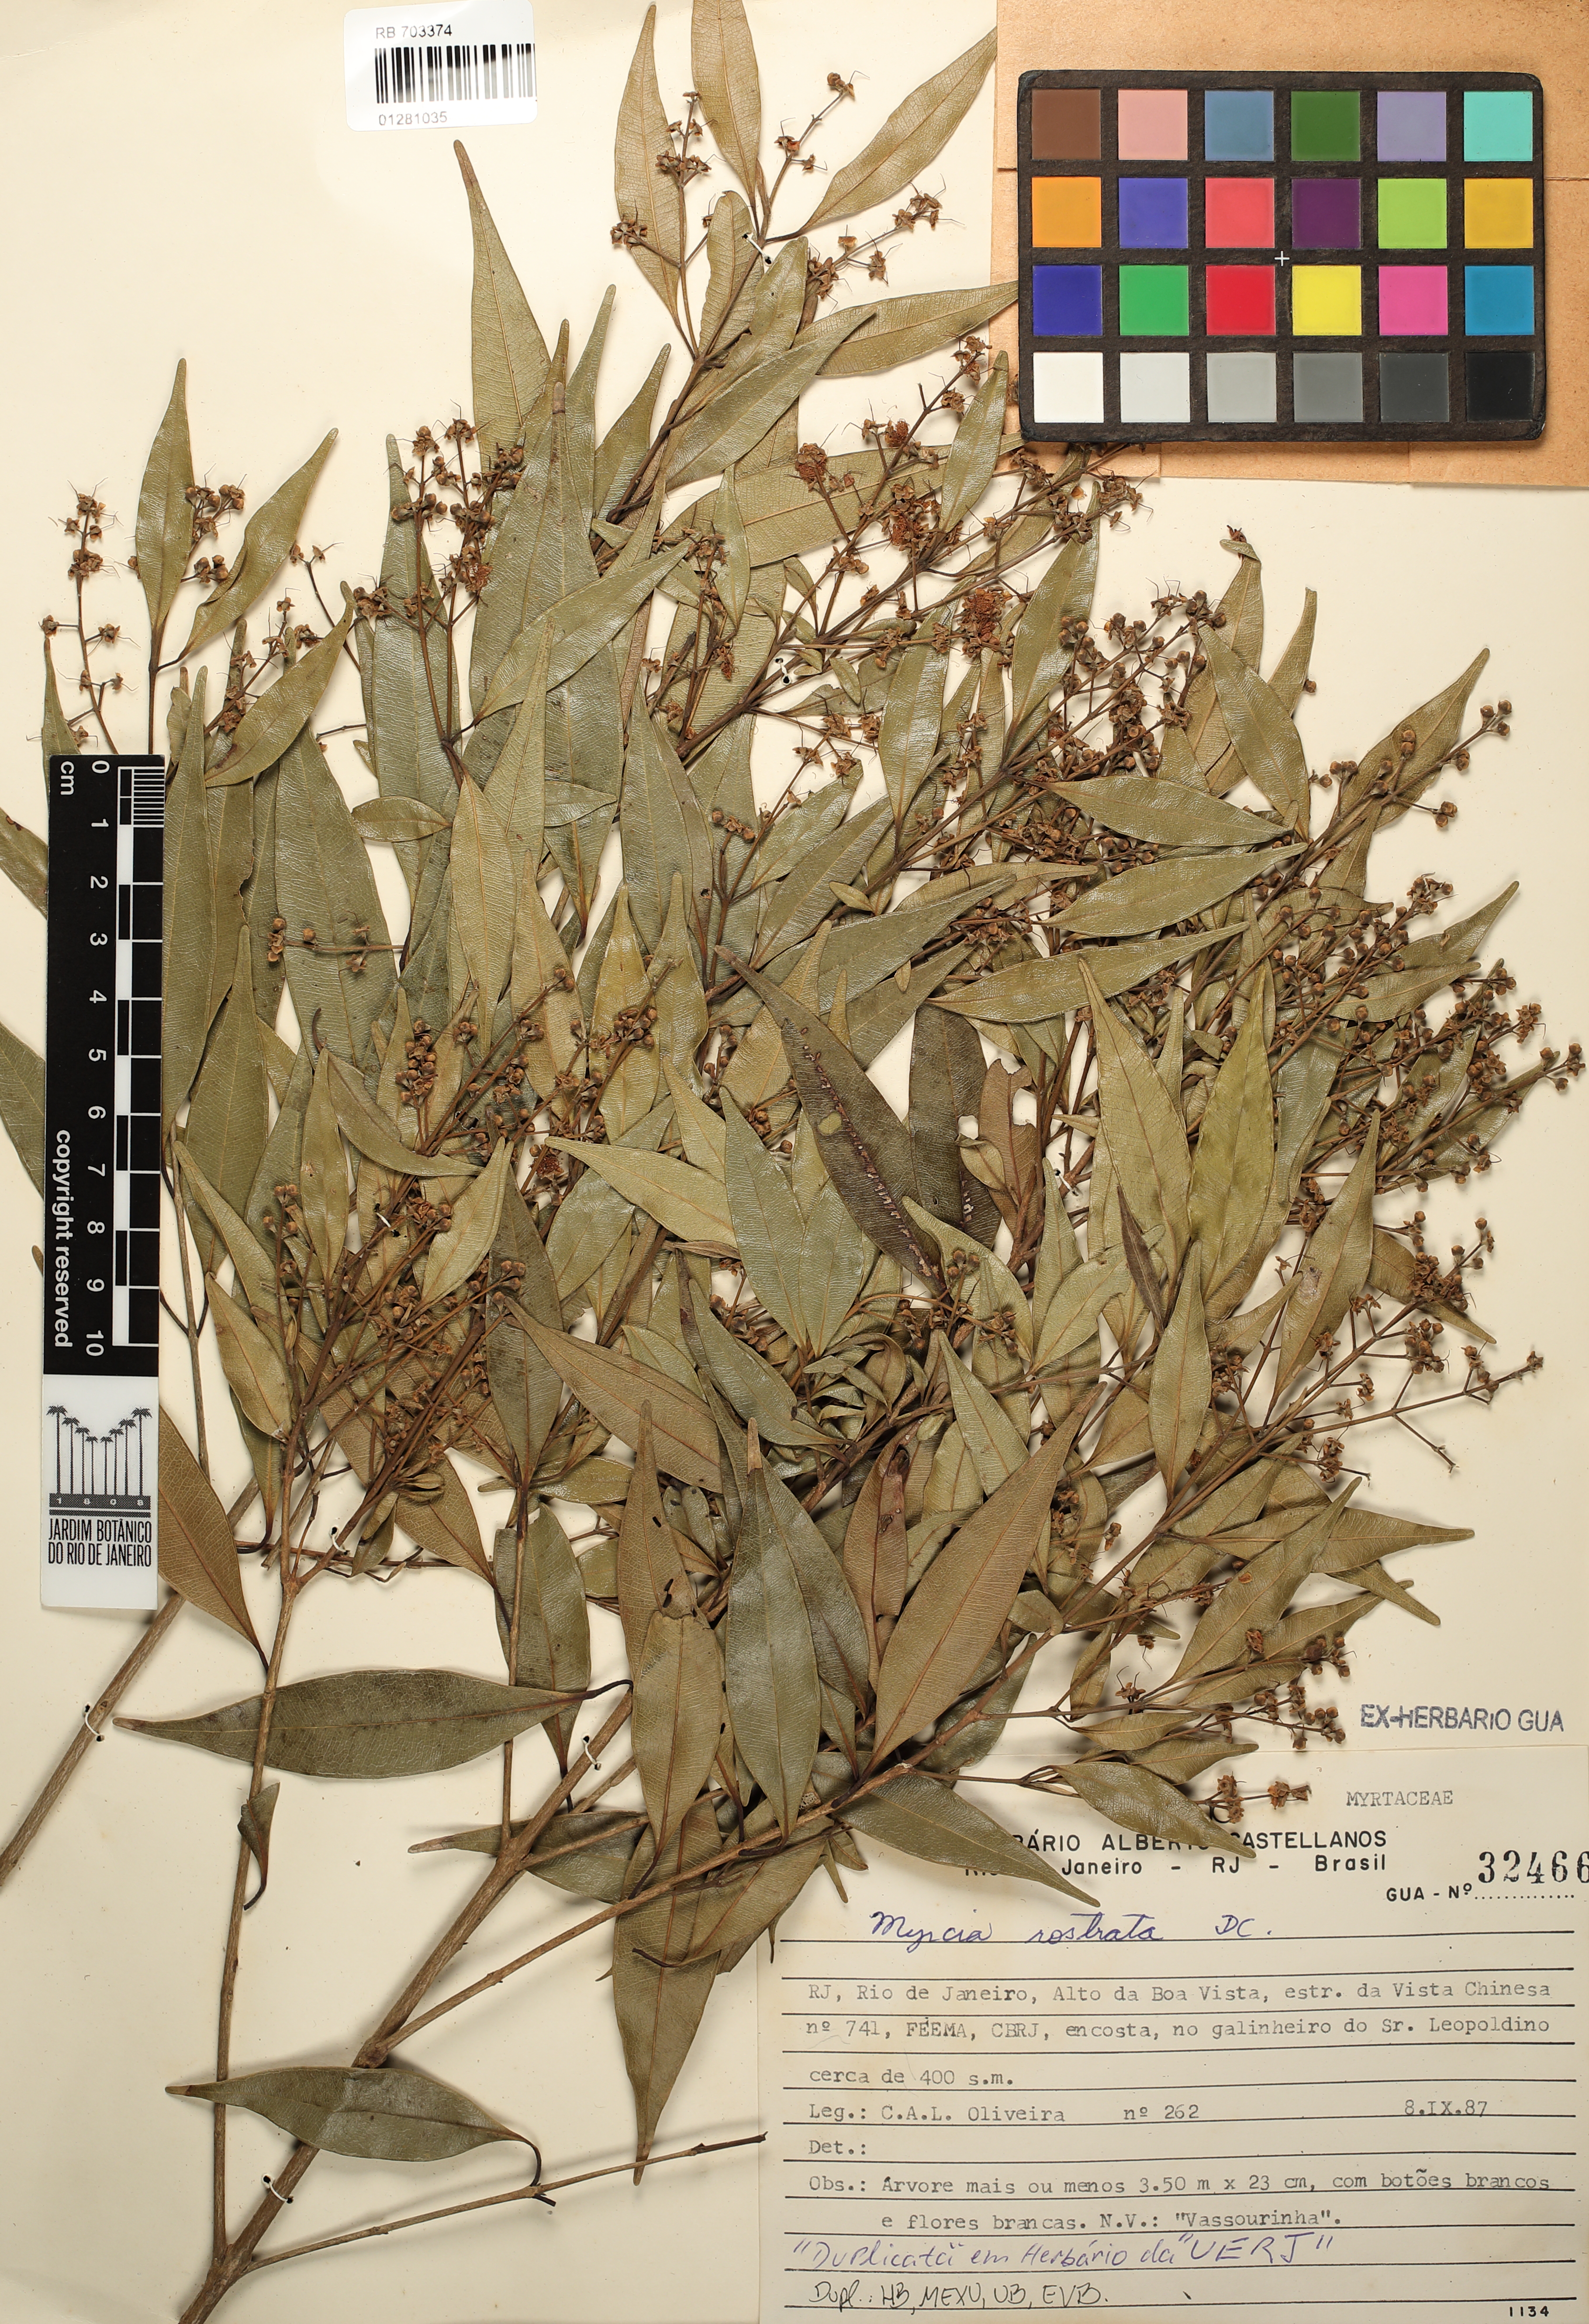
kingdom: Plantae
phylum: Tracheophyta
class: Magnoliopsida
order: Myrtales
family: Myrtaceae
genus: Myrcia
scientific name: Myrcia splendens
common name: Surinam cherry
